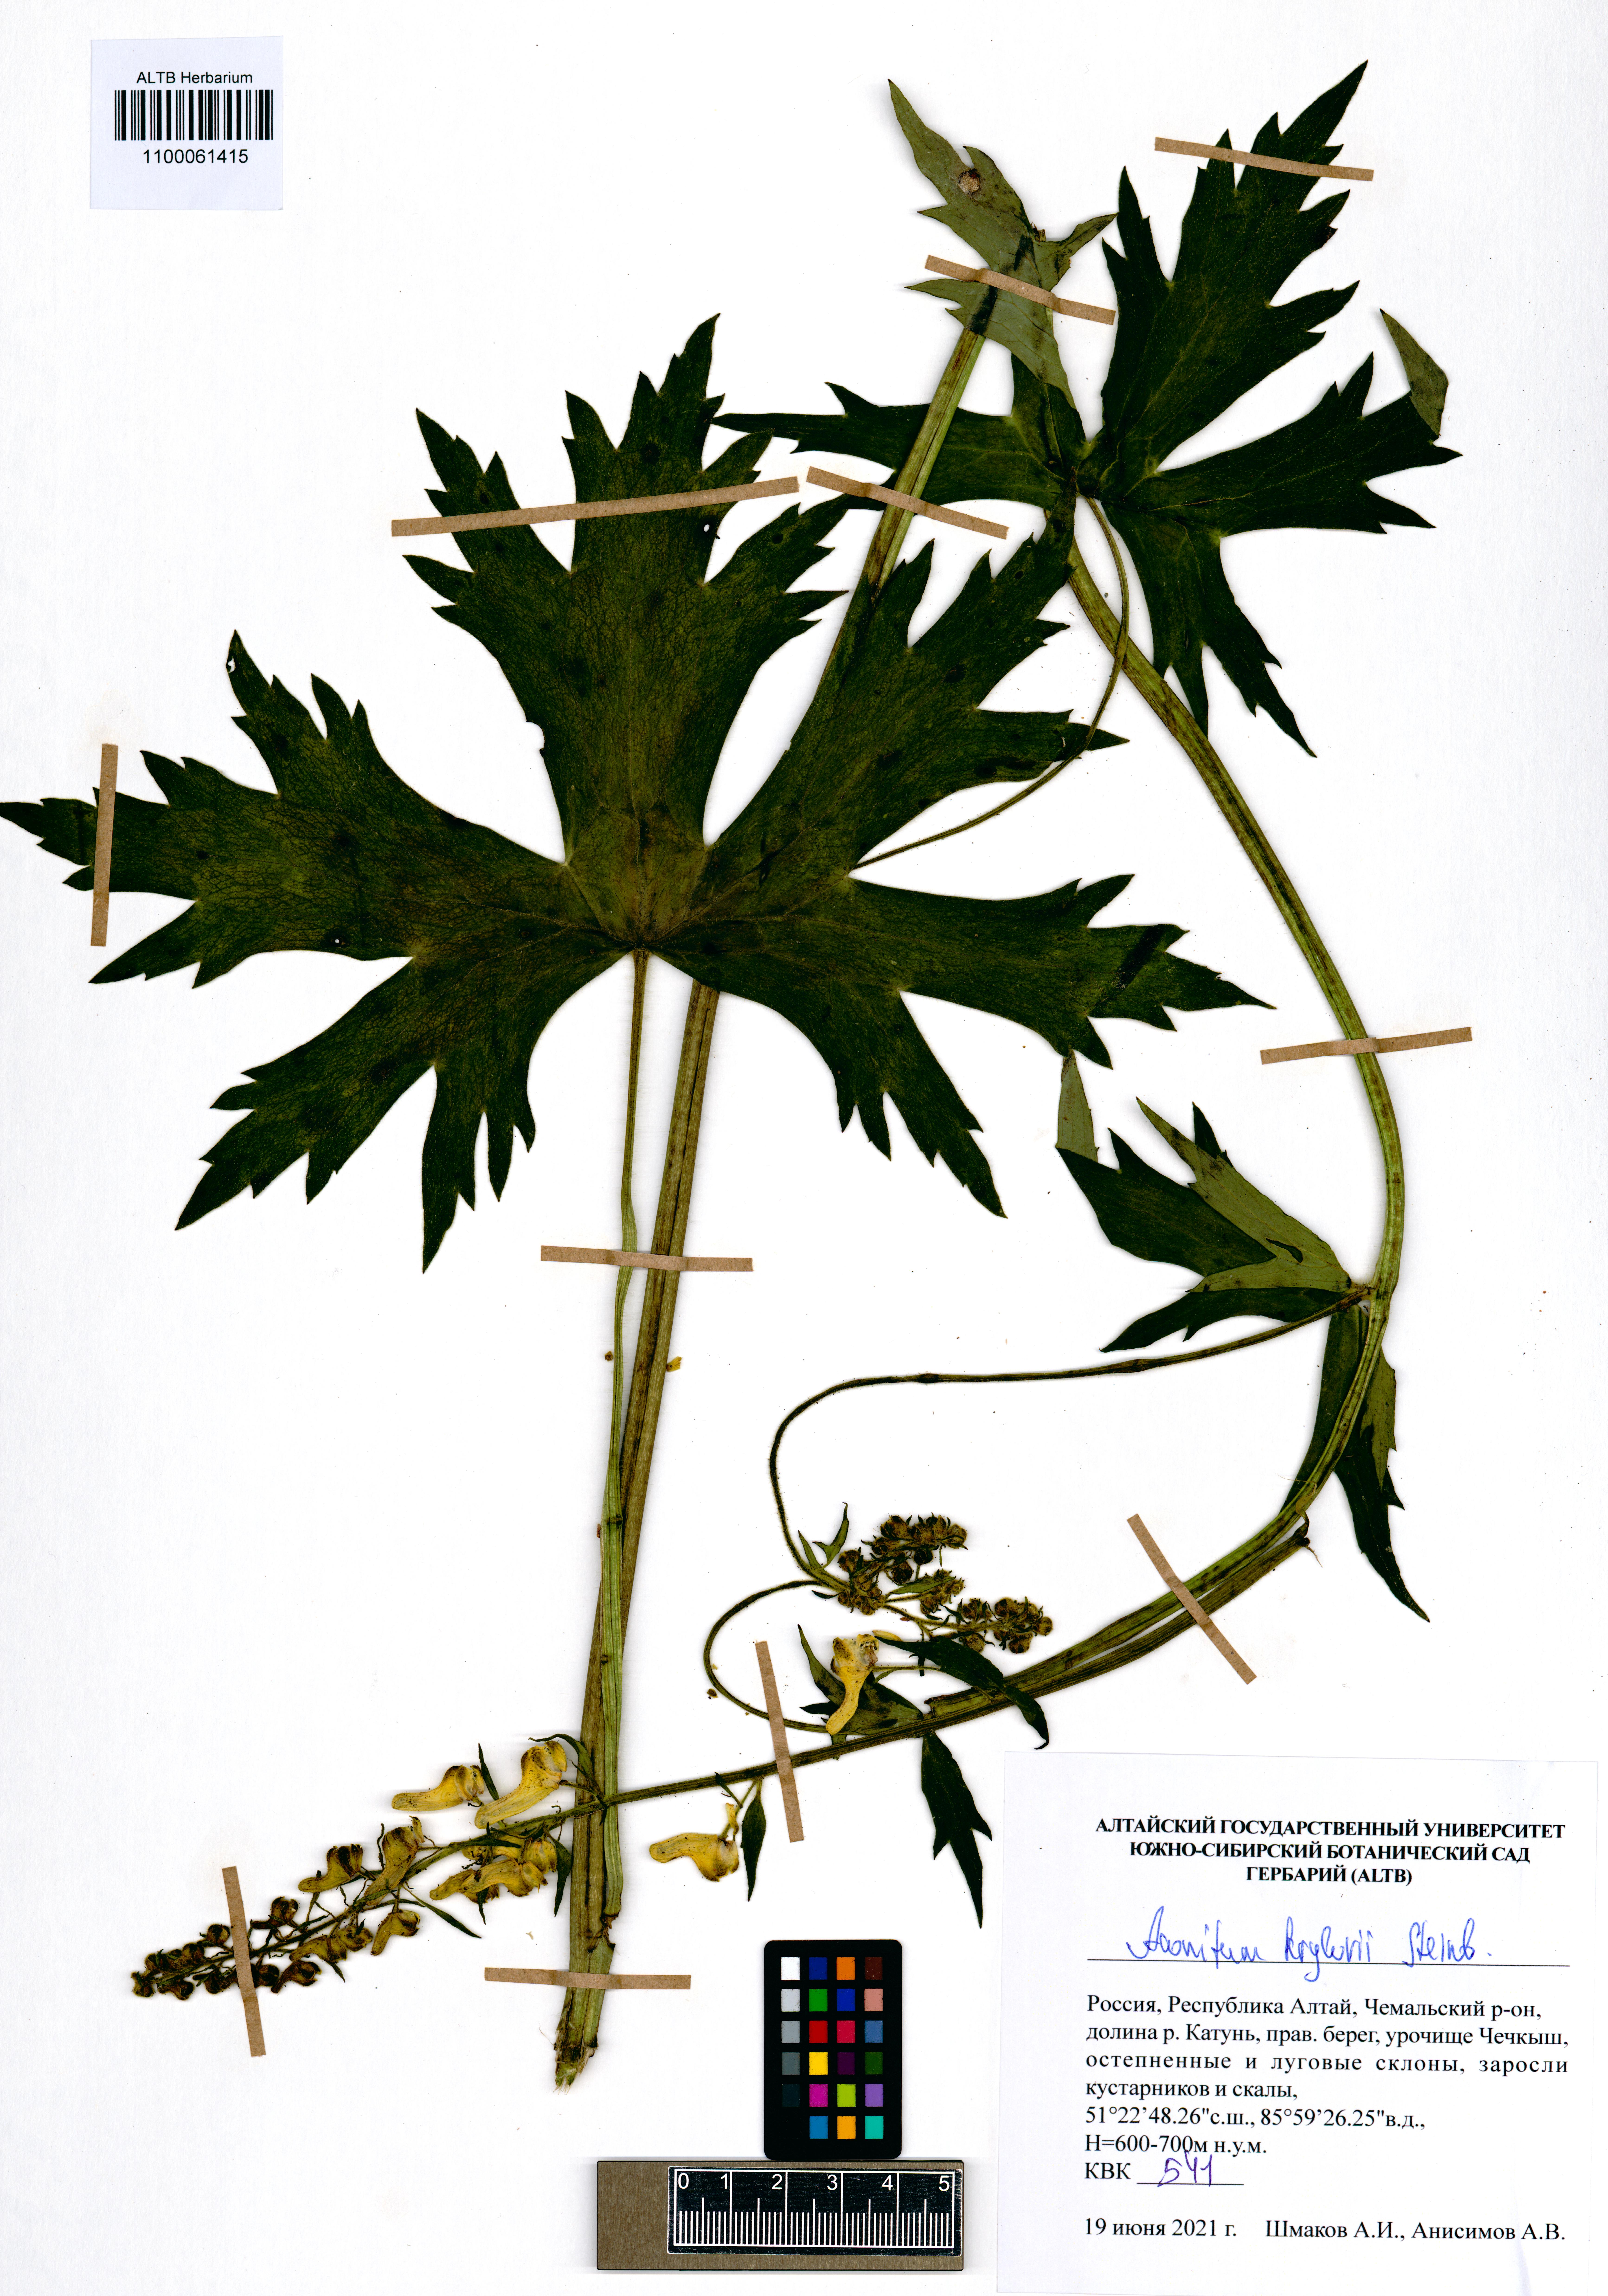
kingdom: Plantae
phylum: Tracheophyta
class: Magnoliopsida
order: Ranunculales
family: Ranunculaceae
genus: Aconitum
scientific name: Aconitum krylovii
